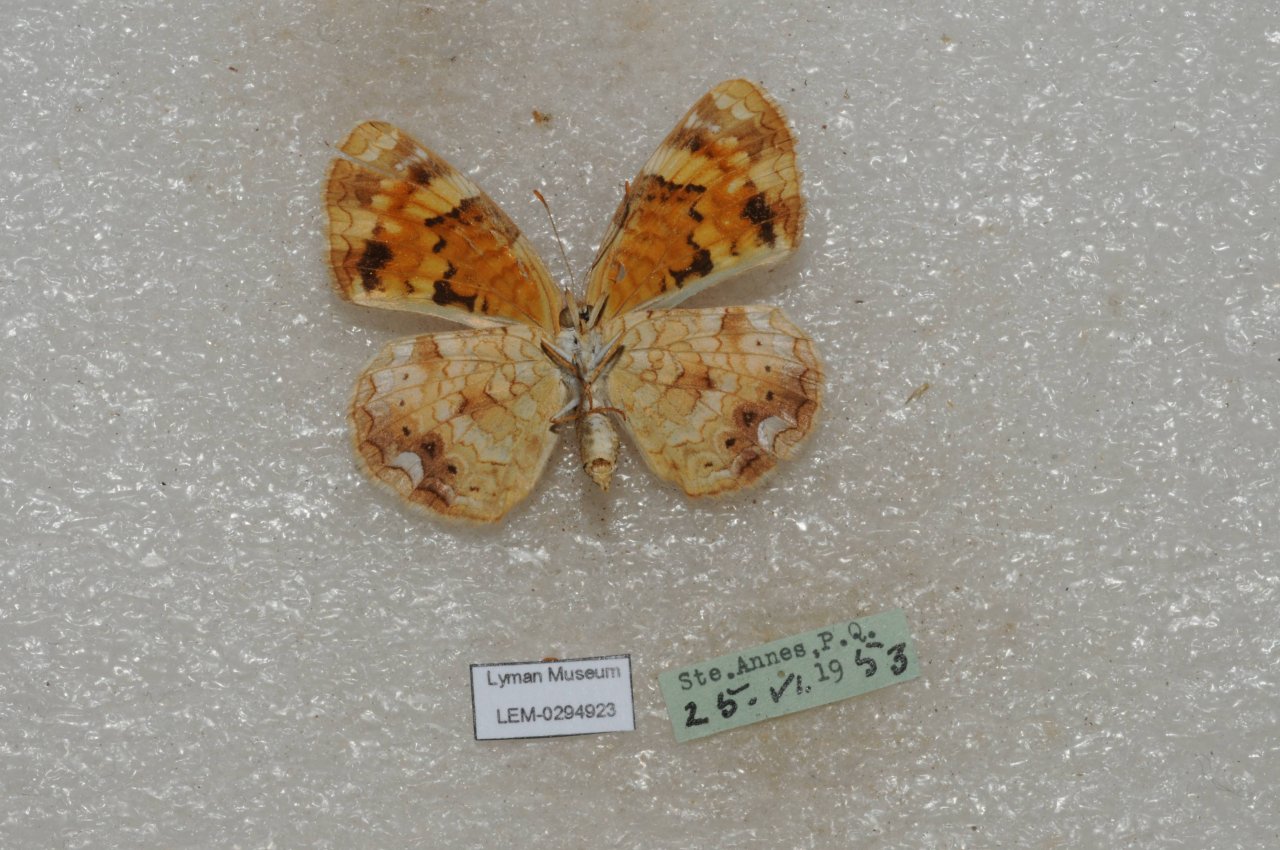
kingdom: Animalia
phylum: Arthropoda
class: Insecta
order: Lepidoptera
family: Nymphalidae
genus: Phyciodes
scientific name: Phyciodes tharos
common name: Northern Crescent
